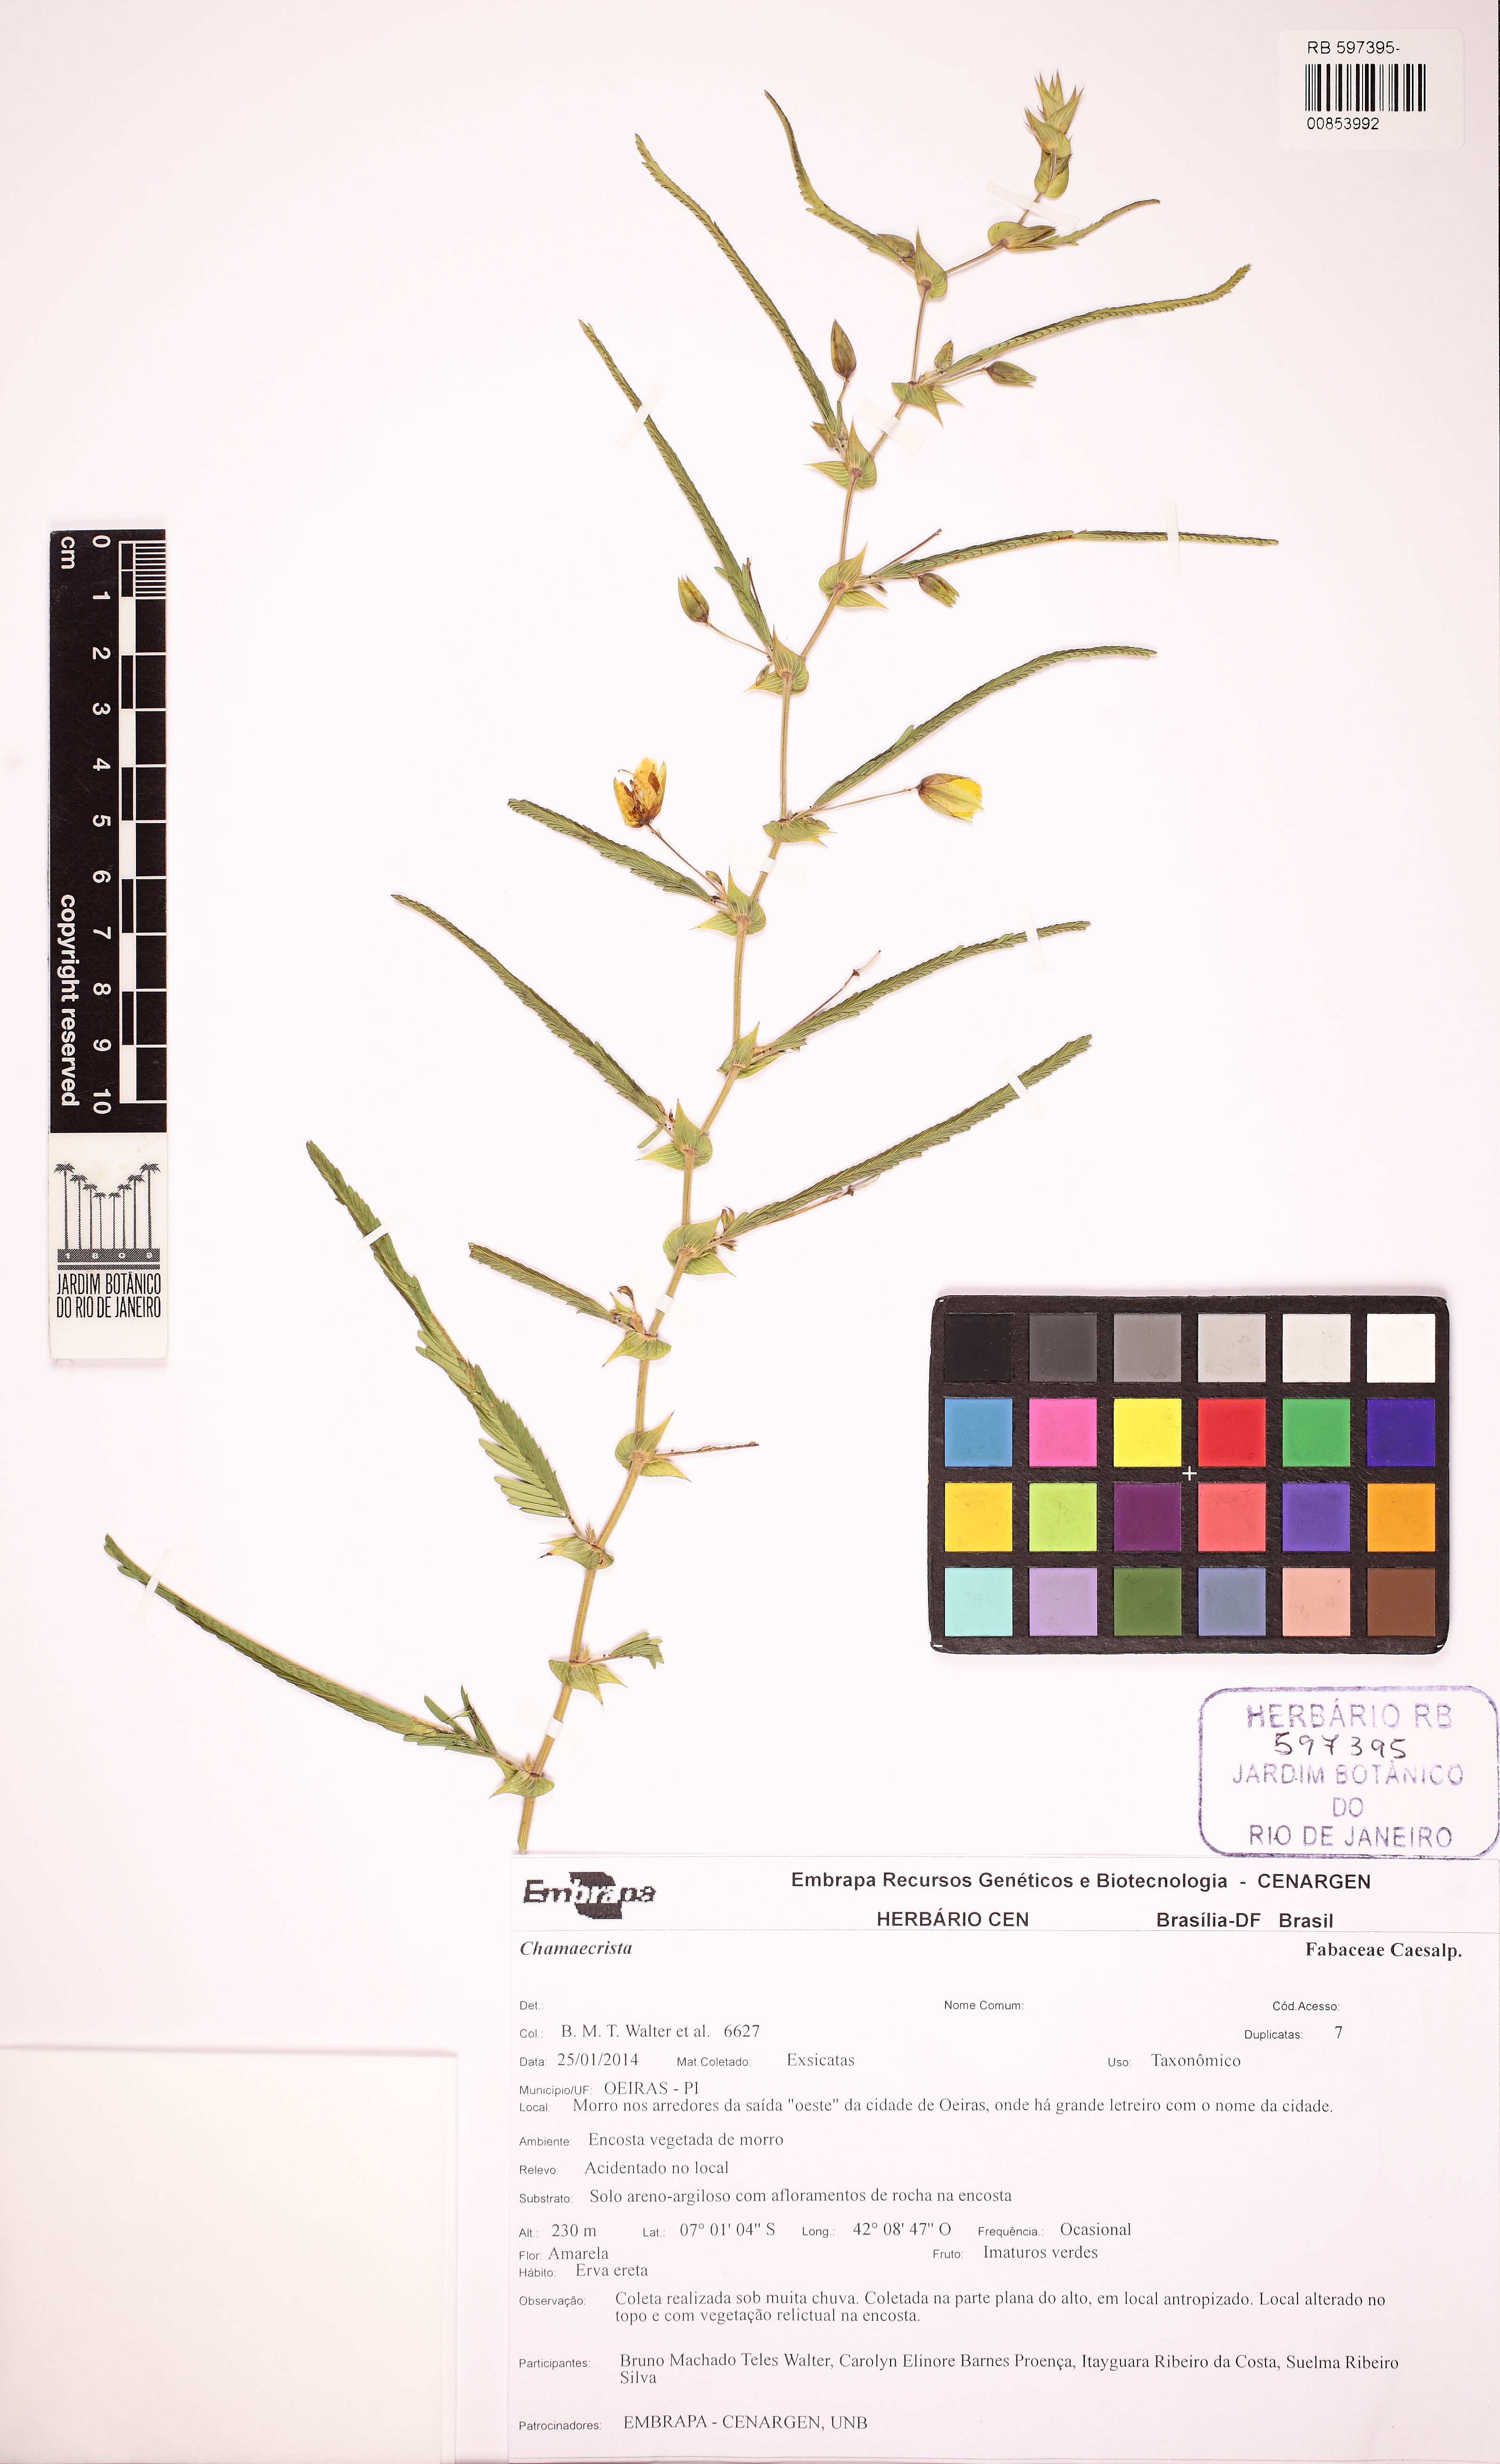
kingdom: Plantae
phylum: Tracheophyta
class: Magnoliopsida
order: Fabales
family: Fabaceae
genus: Chamaecrista
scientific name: Chamaecrista flexuosa
